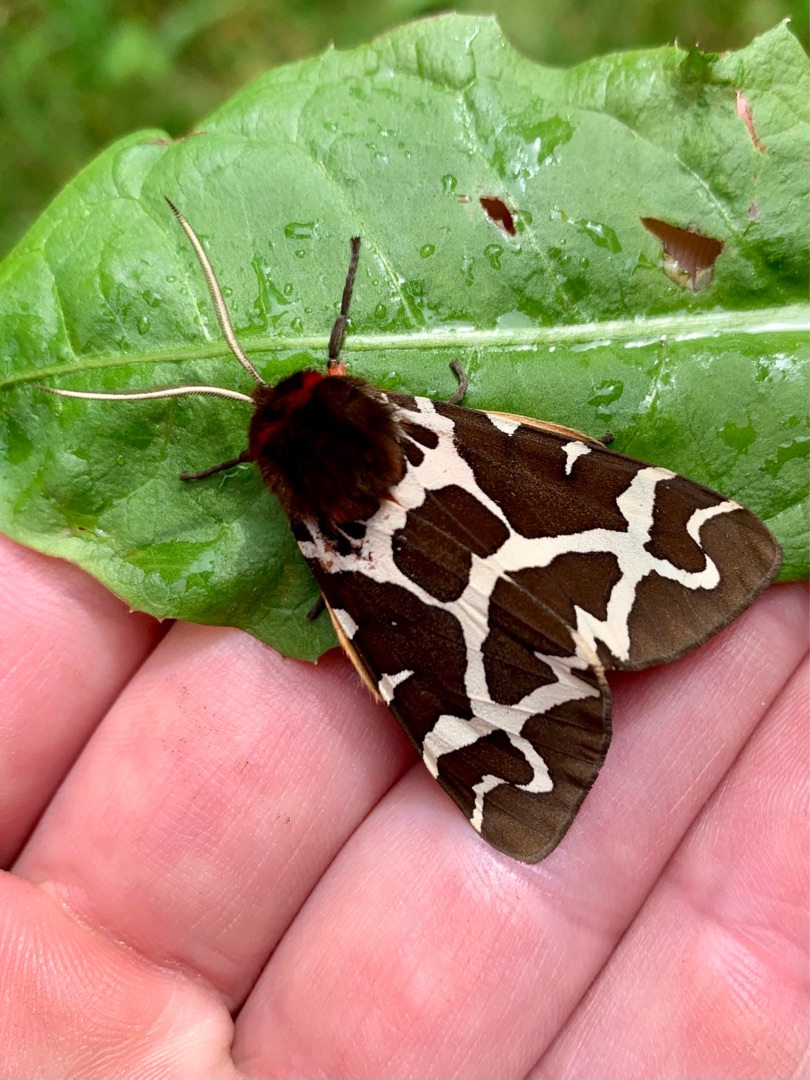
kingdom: Animalia
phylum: Arthropoda
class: Insecta
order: Lepidoptera
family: Erebidae
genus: Arctia
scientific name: Arctia caja
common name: Brun bjørn
